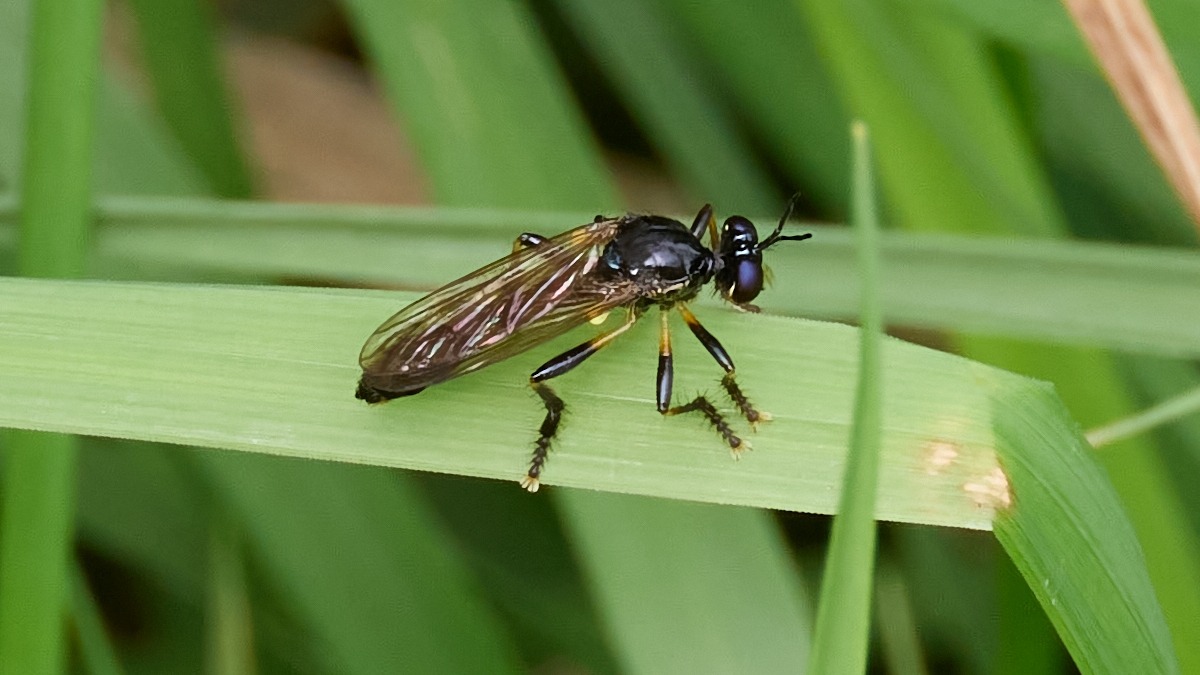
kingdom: Animalia
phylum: Arthropoda
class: Insecta
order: Diptera
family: Asilidae
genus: Dioctria
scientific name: Dioctria cothurnata
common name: Pukkelrygget engrovflue
